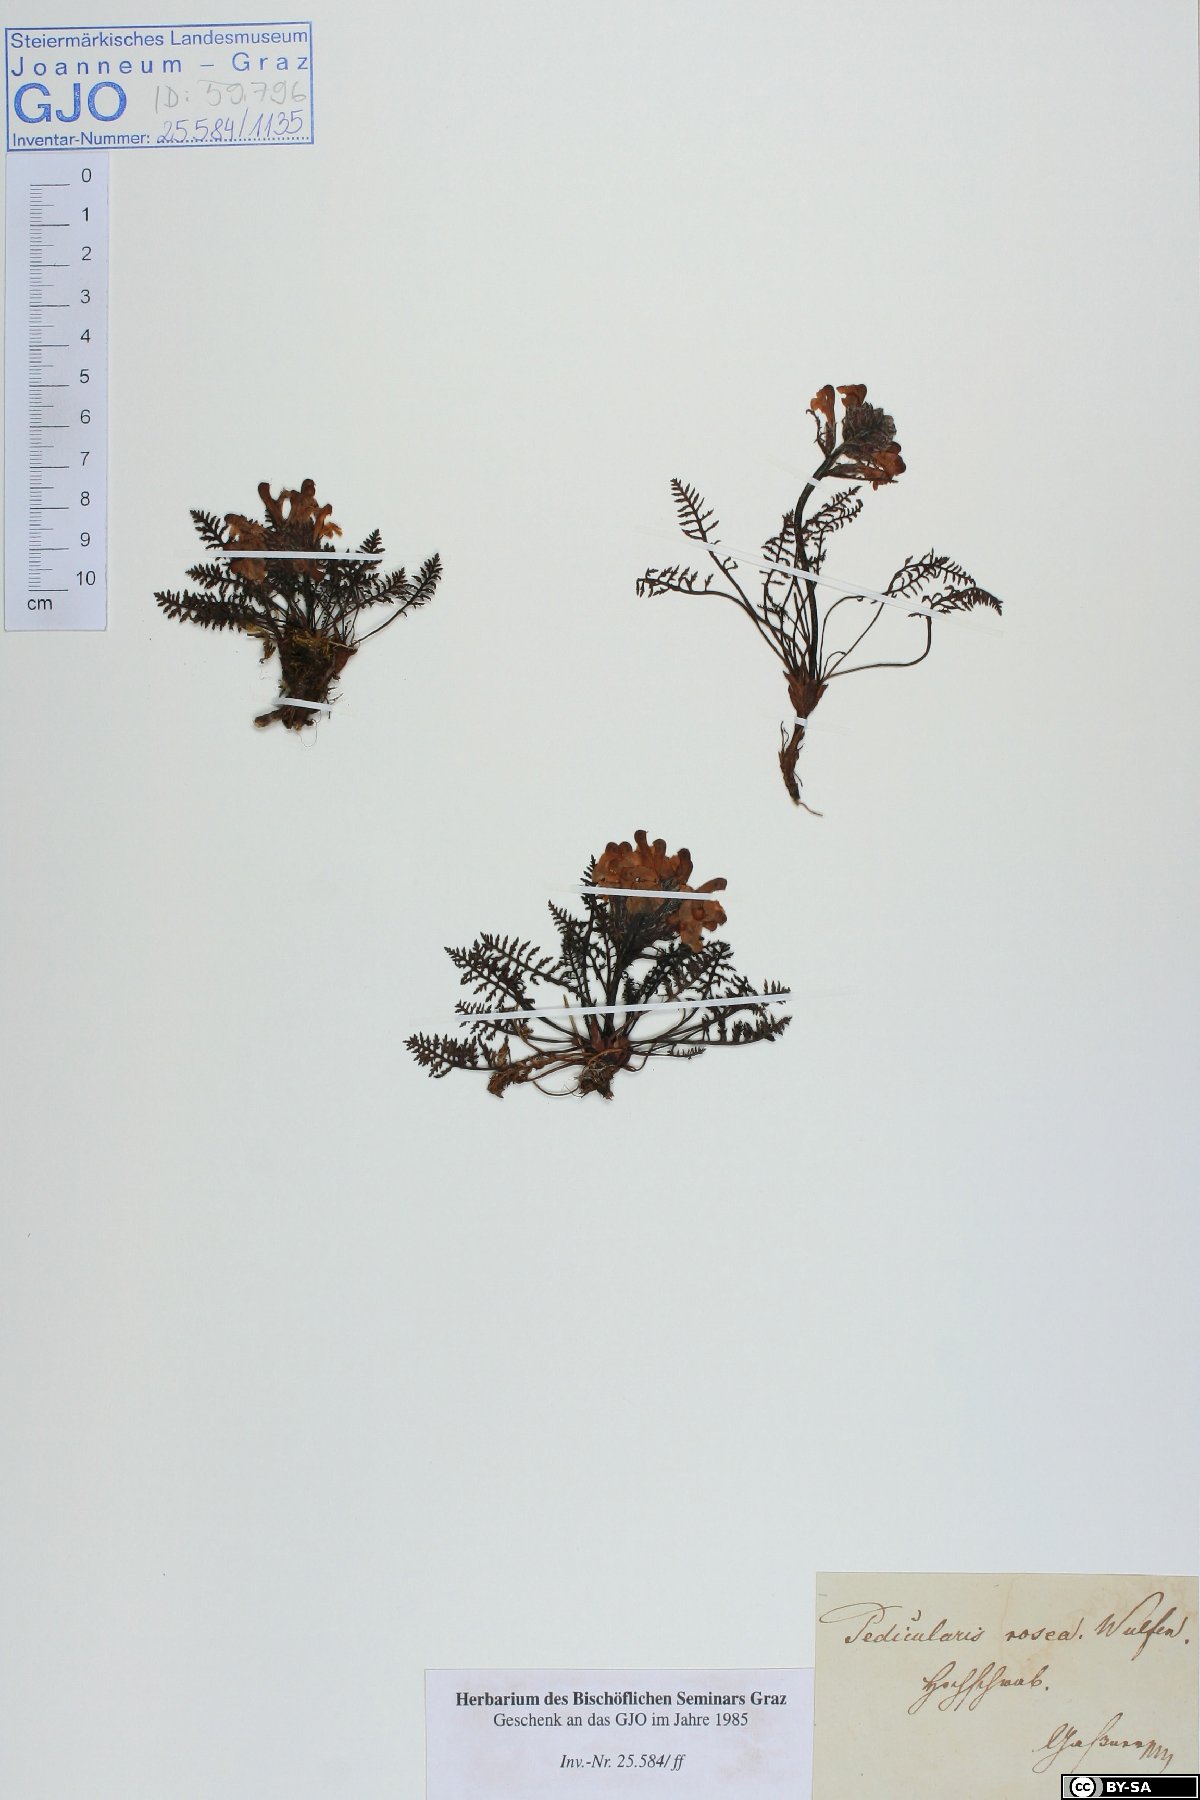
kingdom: Plantae
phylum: Tracheophyta
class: Magnoliopsida
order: Lamiales
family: Orobanchaceae
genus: Pedicularis
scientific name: Pedicularis rosea
